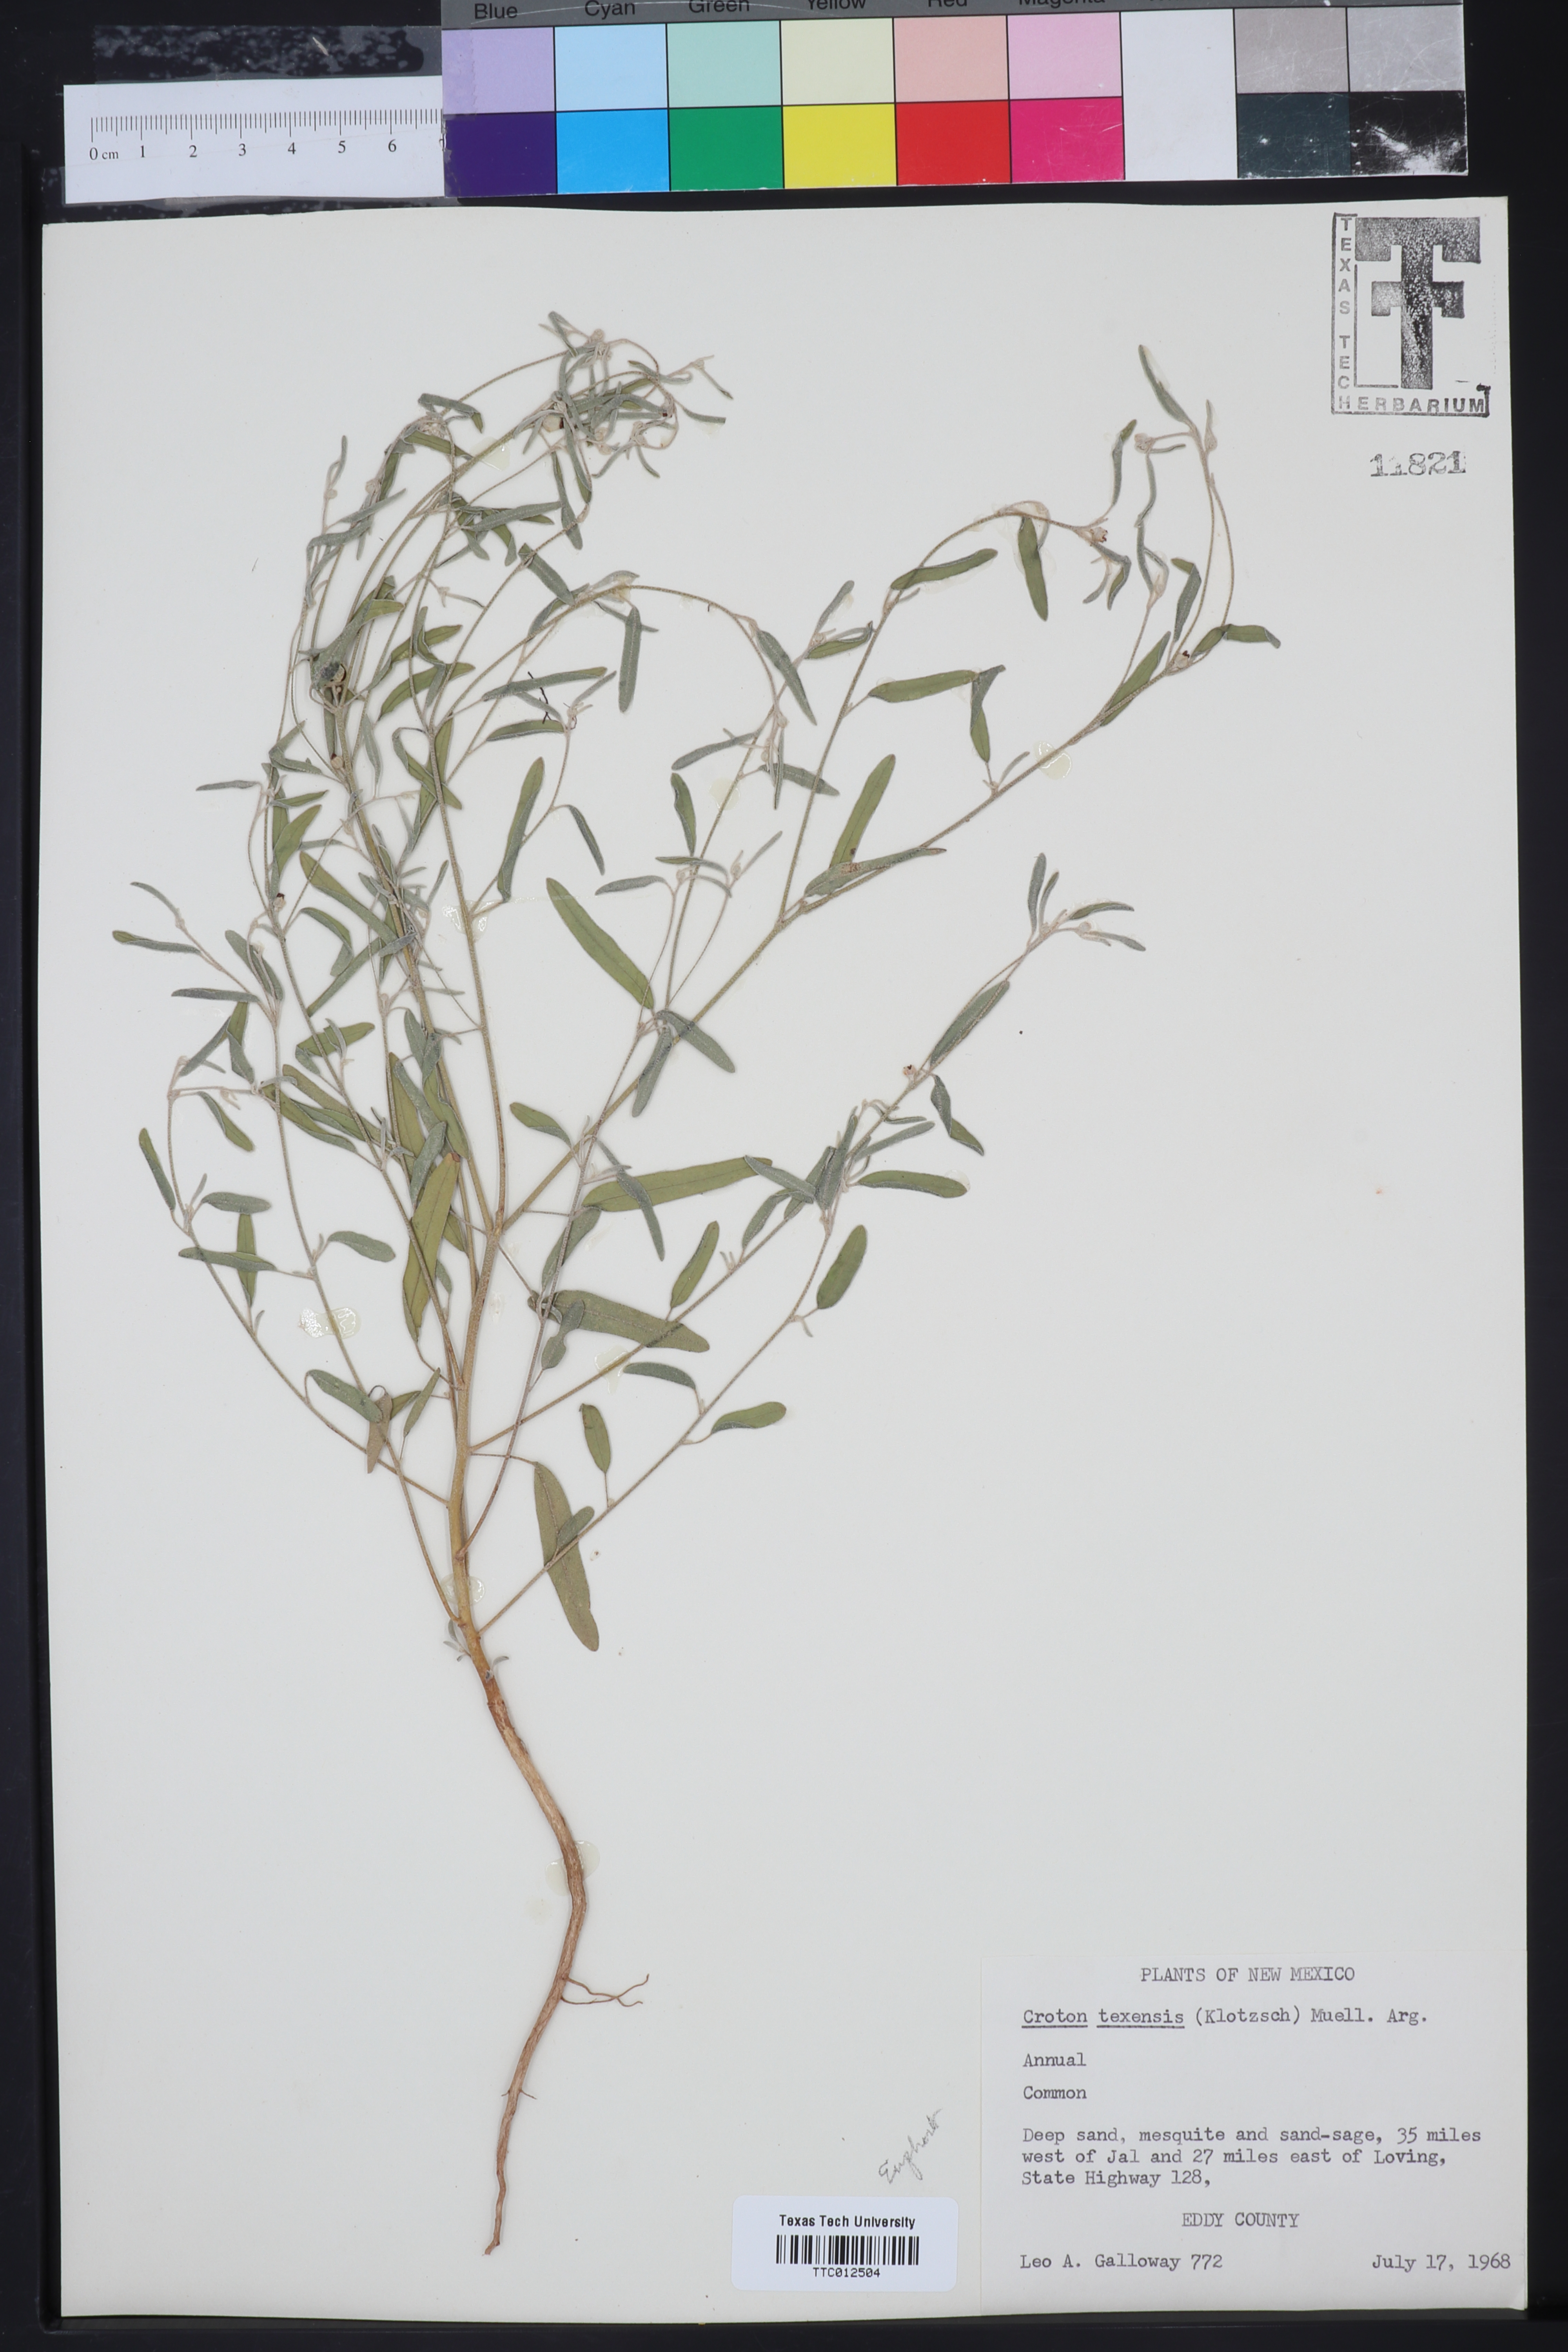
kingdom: Plantae
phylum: Tracheophyta
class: Magnoliopsida
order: Malpighiales
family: Euphorbiaceae
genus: Croton
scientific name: Croton texensis
